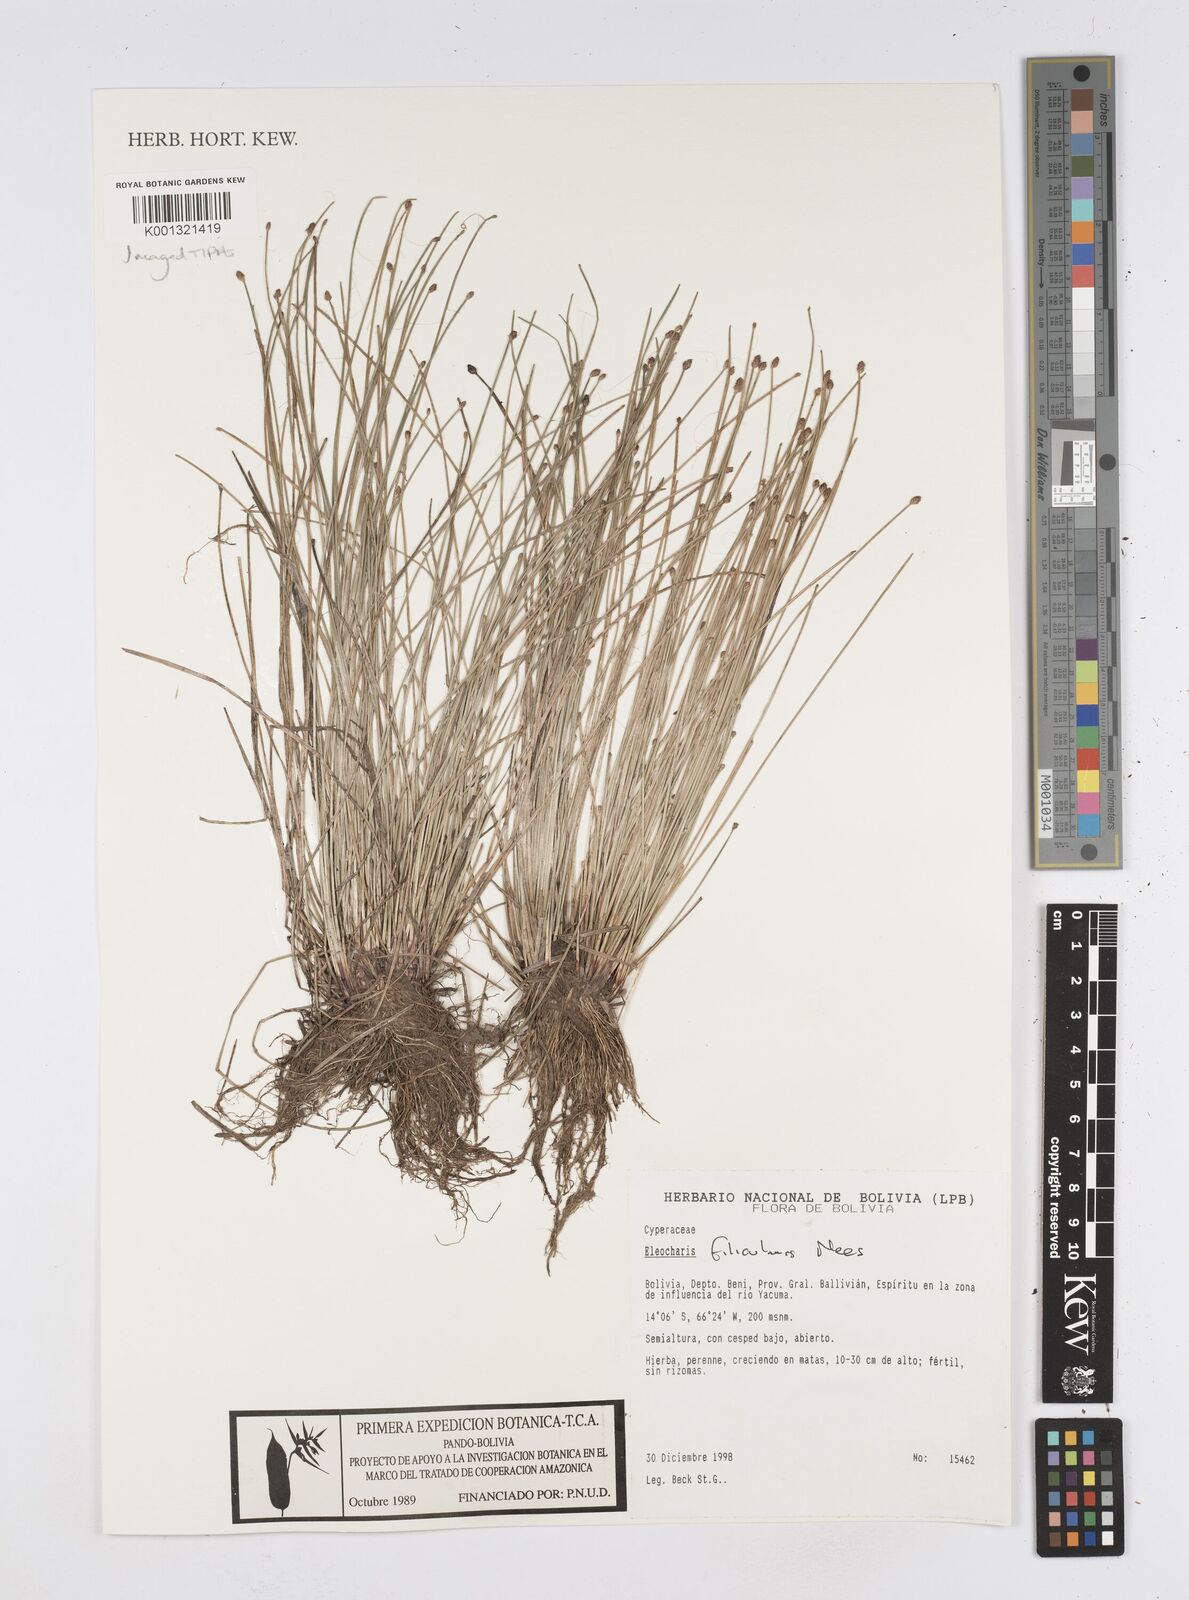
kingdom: Plantae
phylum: Tracheophyta
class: Liliopsida
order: Poales
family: Cyperaceae
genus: Eleocharis
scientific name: Eleocharis filiculmis
